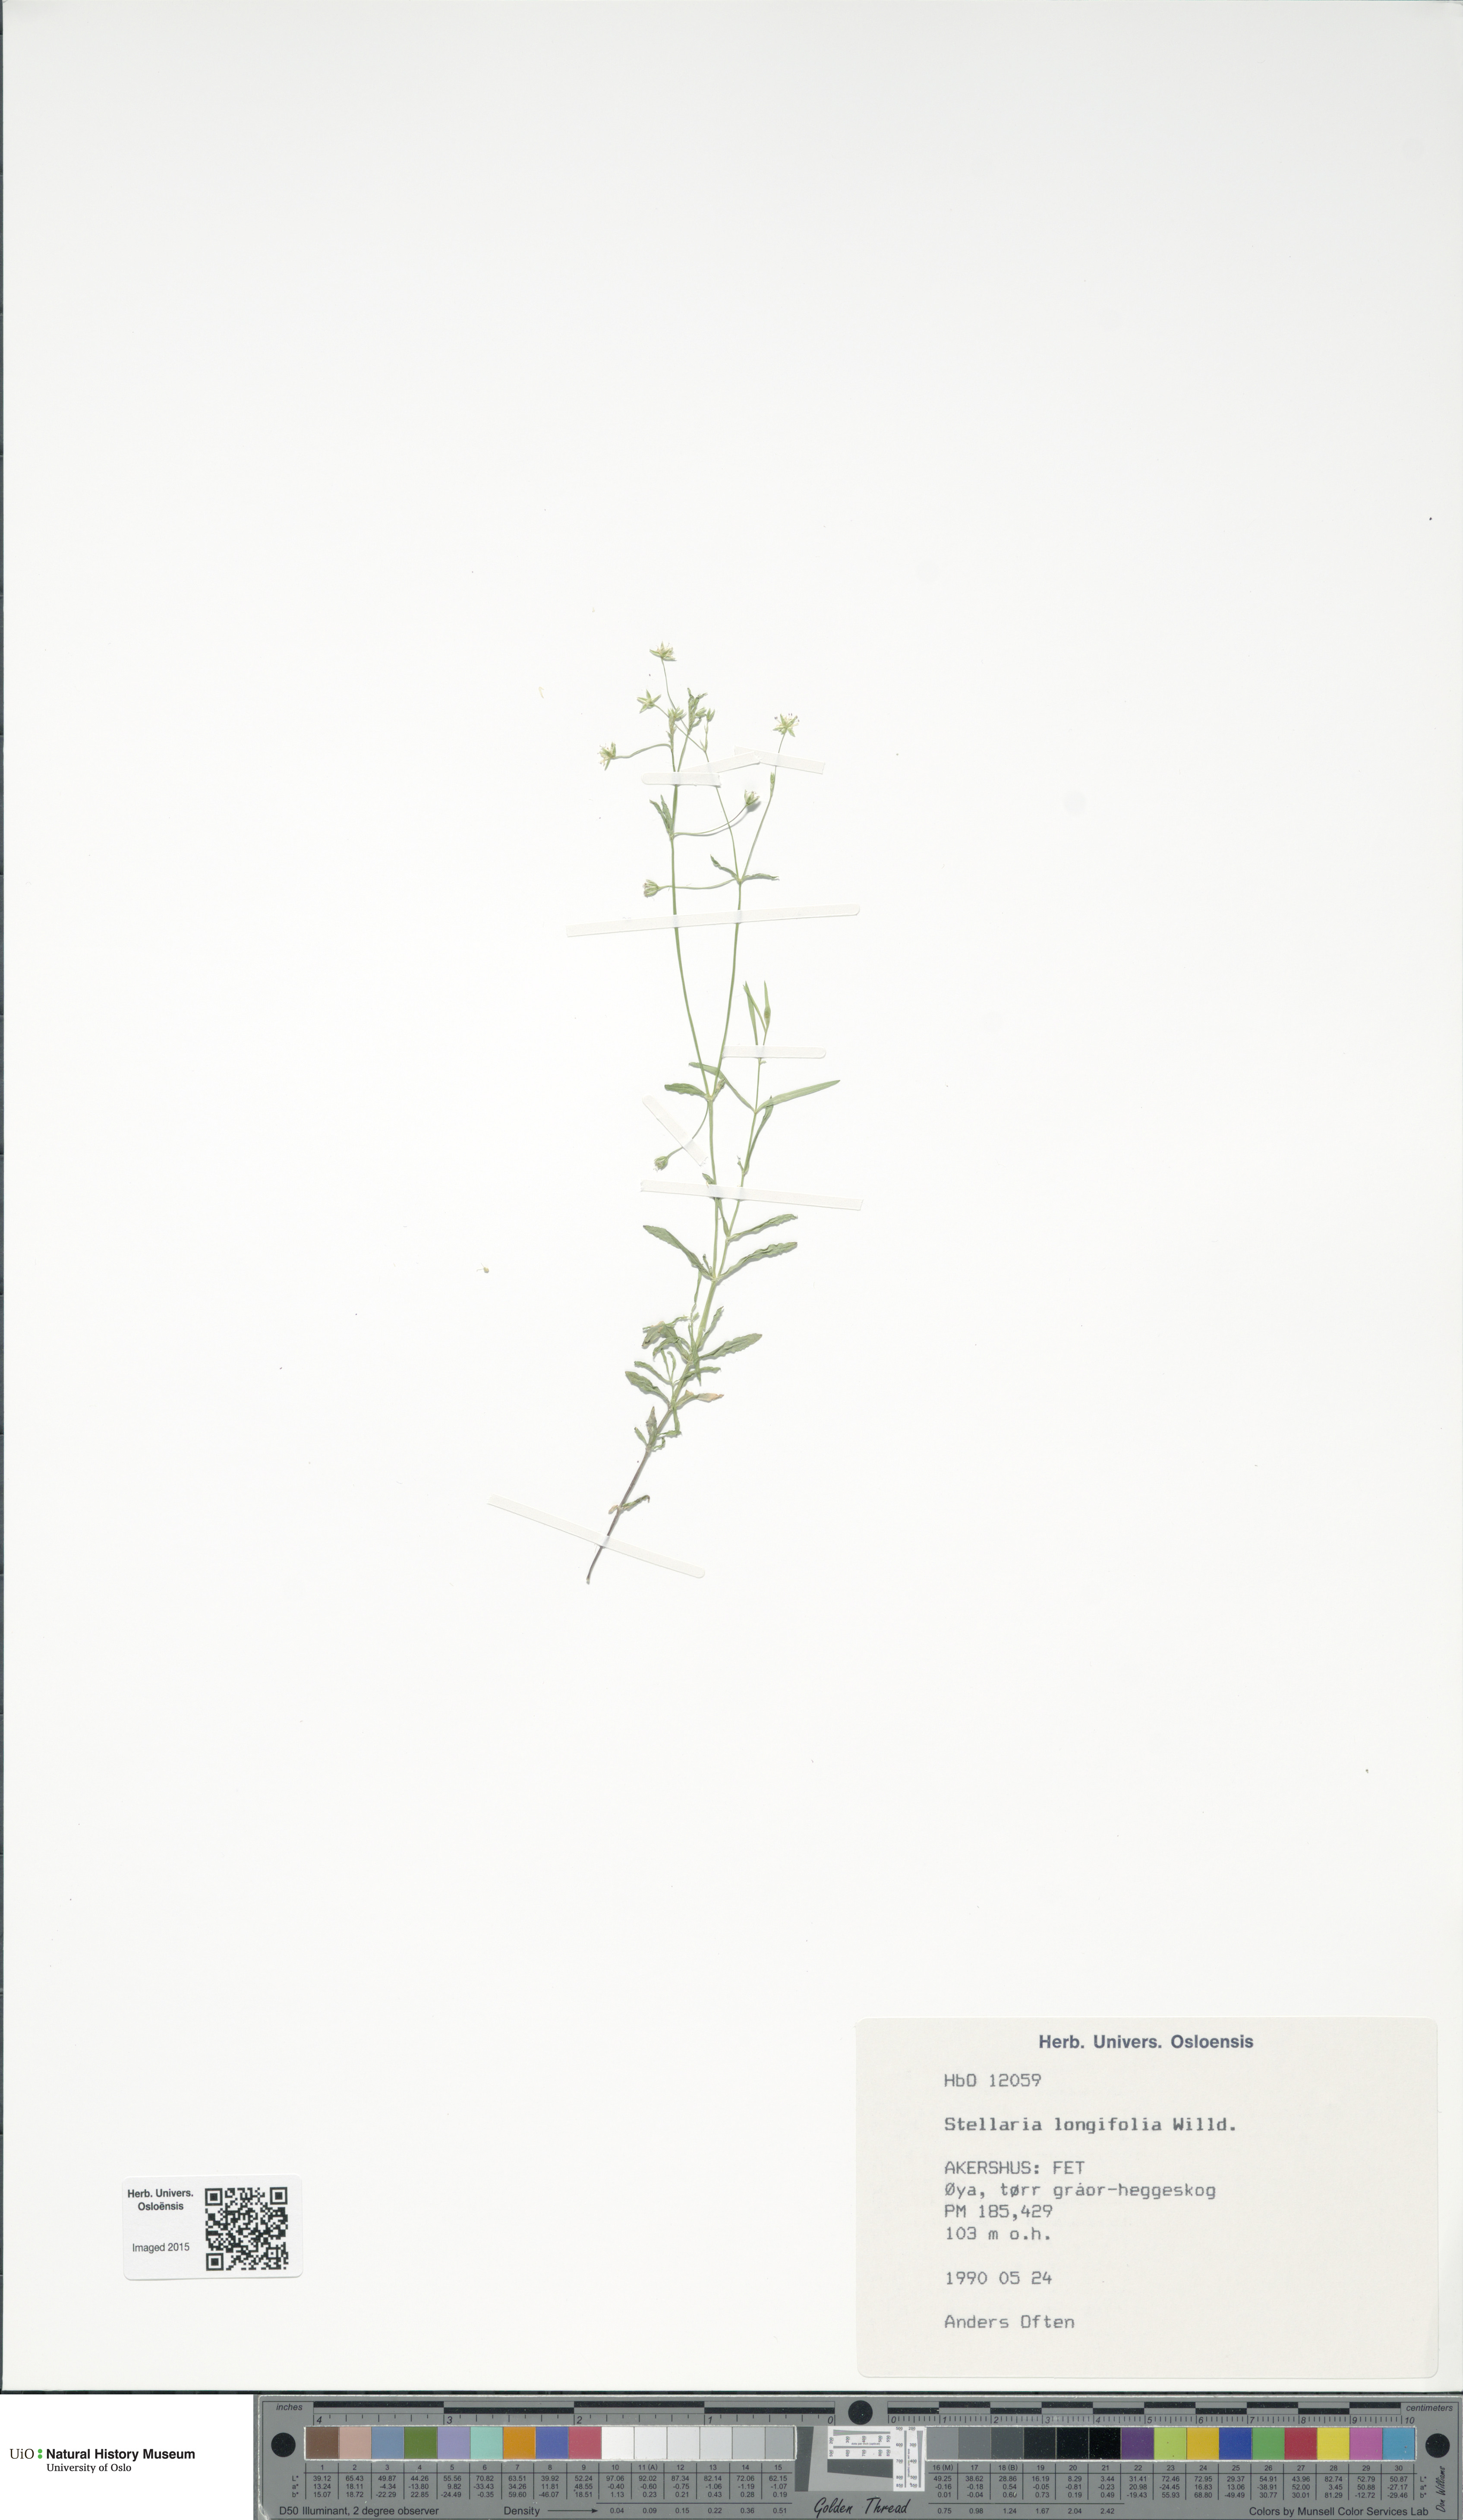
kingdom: Plantae
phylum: Tracheophyta
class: Magnoliopsida
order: Caryophyllales
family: Caryophyllaceae
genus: Stellaria
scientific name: Stellaria longifolia
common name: Long-leaved chickweed
